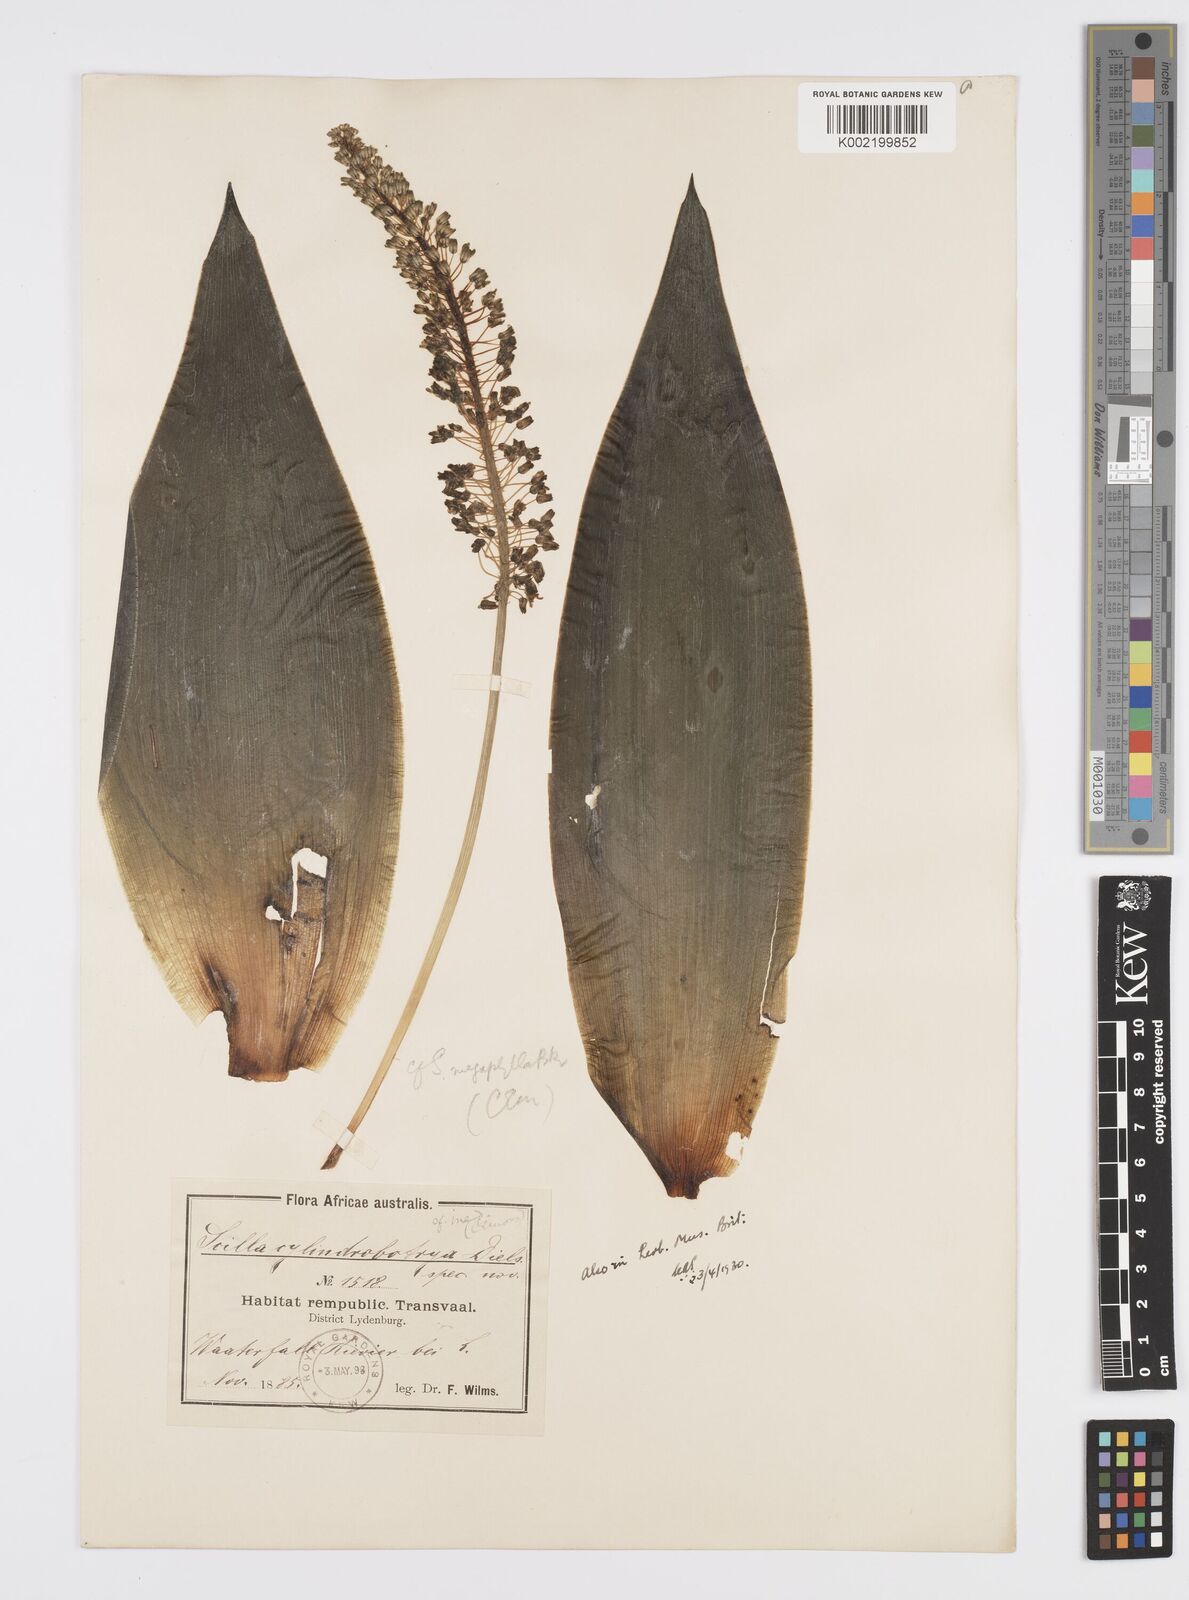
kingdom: Plantae
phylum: Tracheophyta
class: Liliopsida
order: Asparagales
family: Asparagaceae
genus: Ledebouria
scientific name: Ledebouria floribunda
